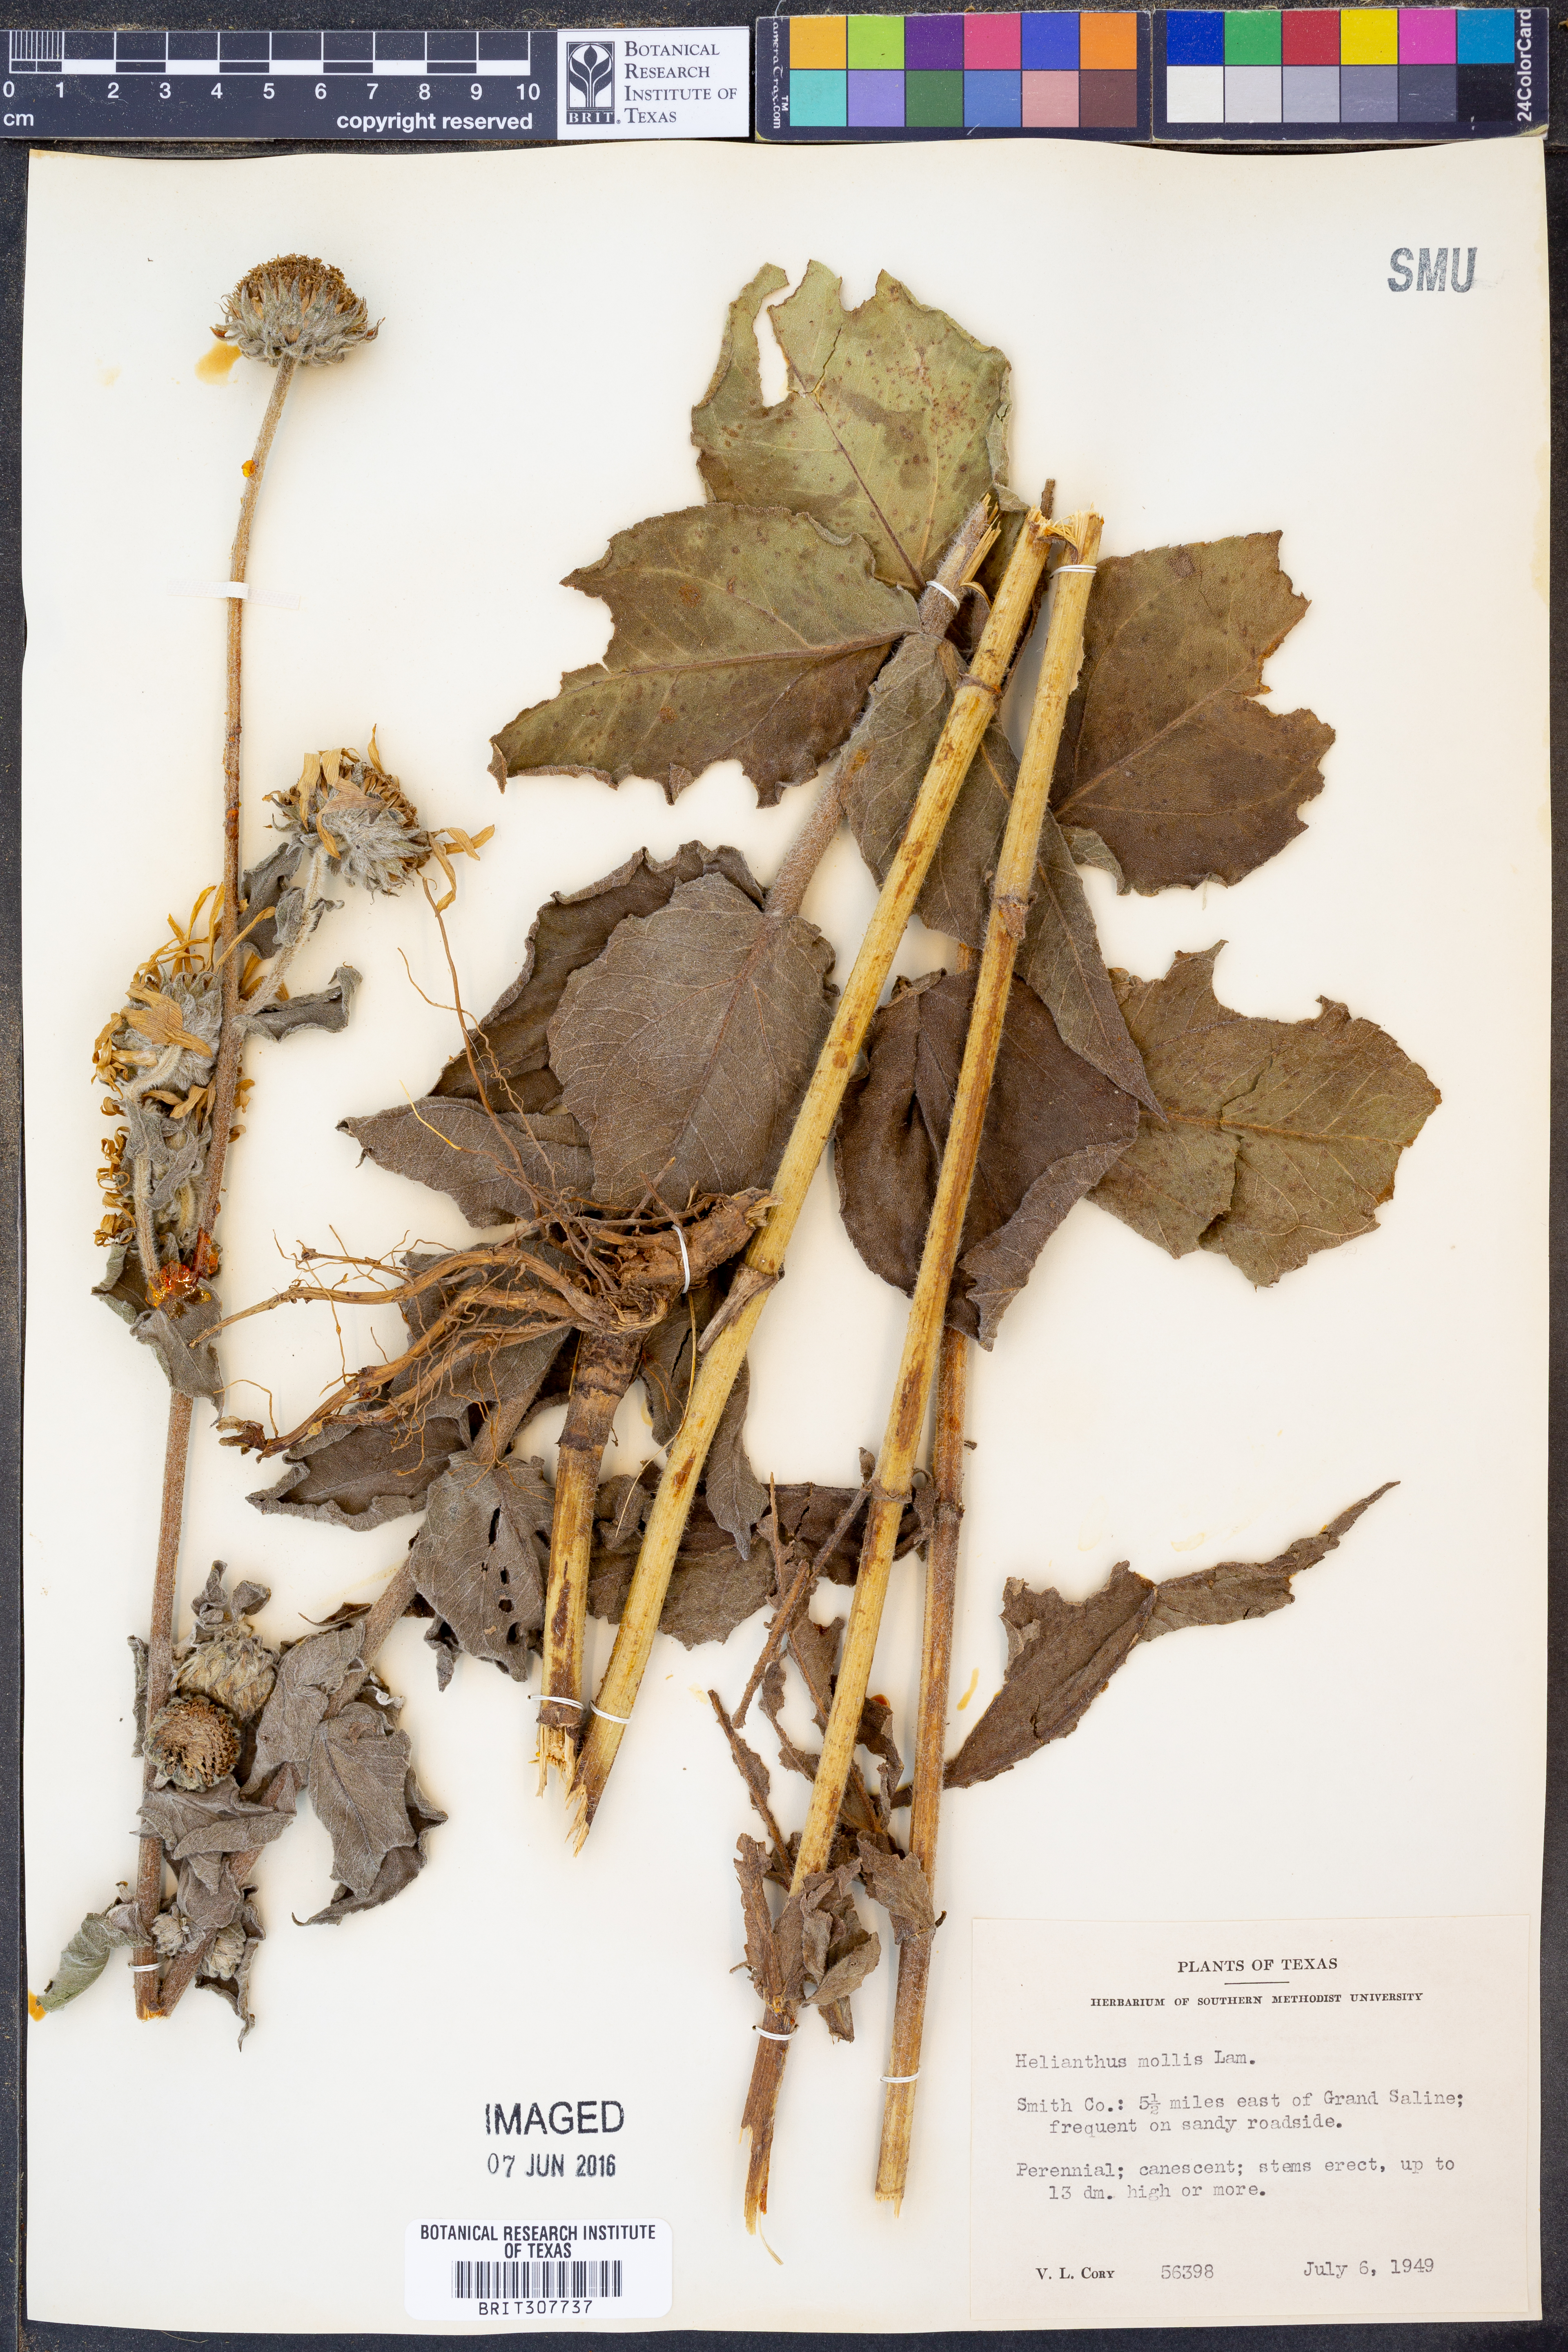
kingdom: Plantae
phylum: Tracheophyta
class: Magnoliopsida
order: Asterales
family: Asteraceae
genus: Helianthus
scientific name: Helianthus mollis
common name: Ashy sunflower
